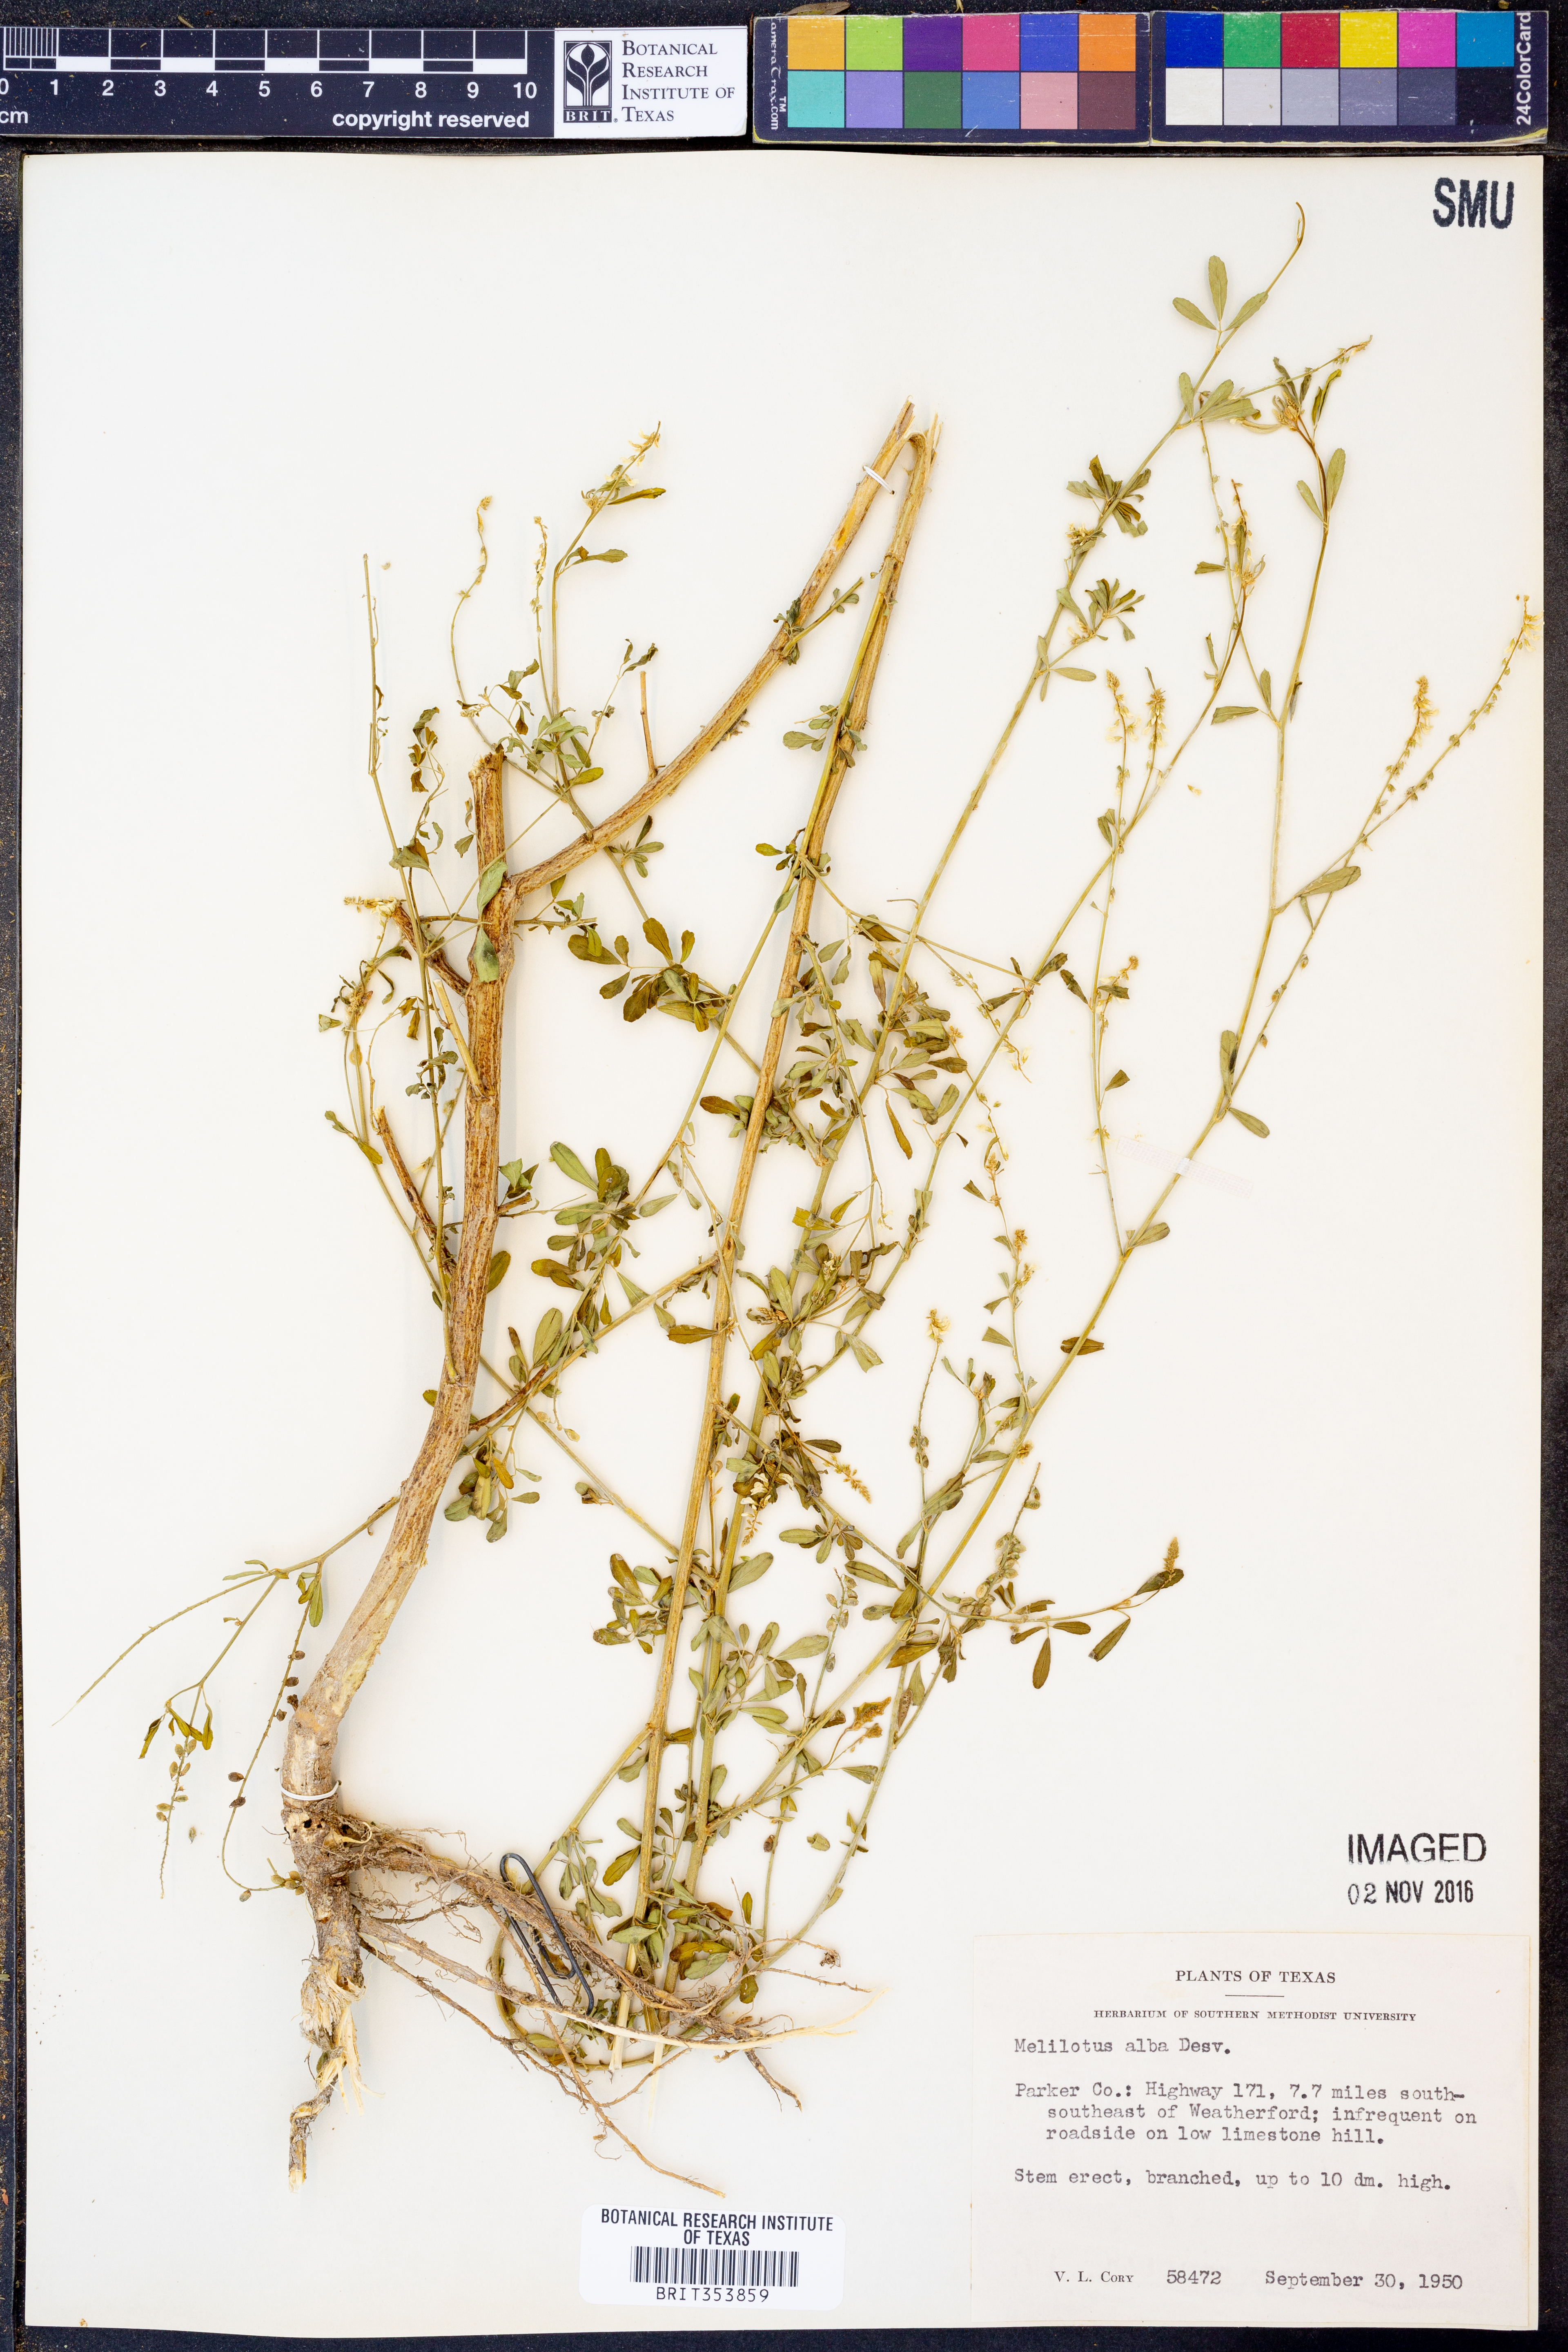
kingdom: Plantae
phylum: Tracheophyta
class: Magnoliopsida
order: Fabales
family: Fabaceae
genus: Melilotus
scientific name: Melilotus albus
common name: White melilot
